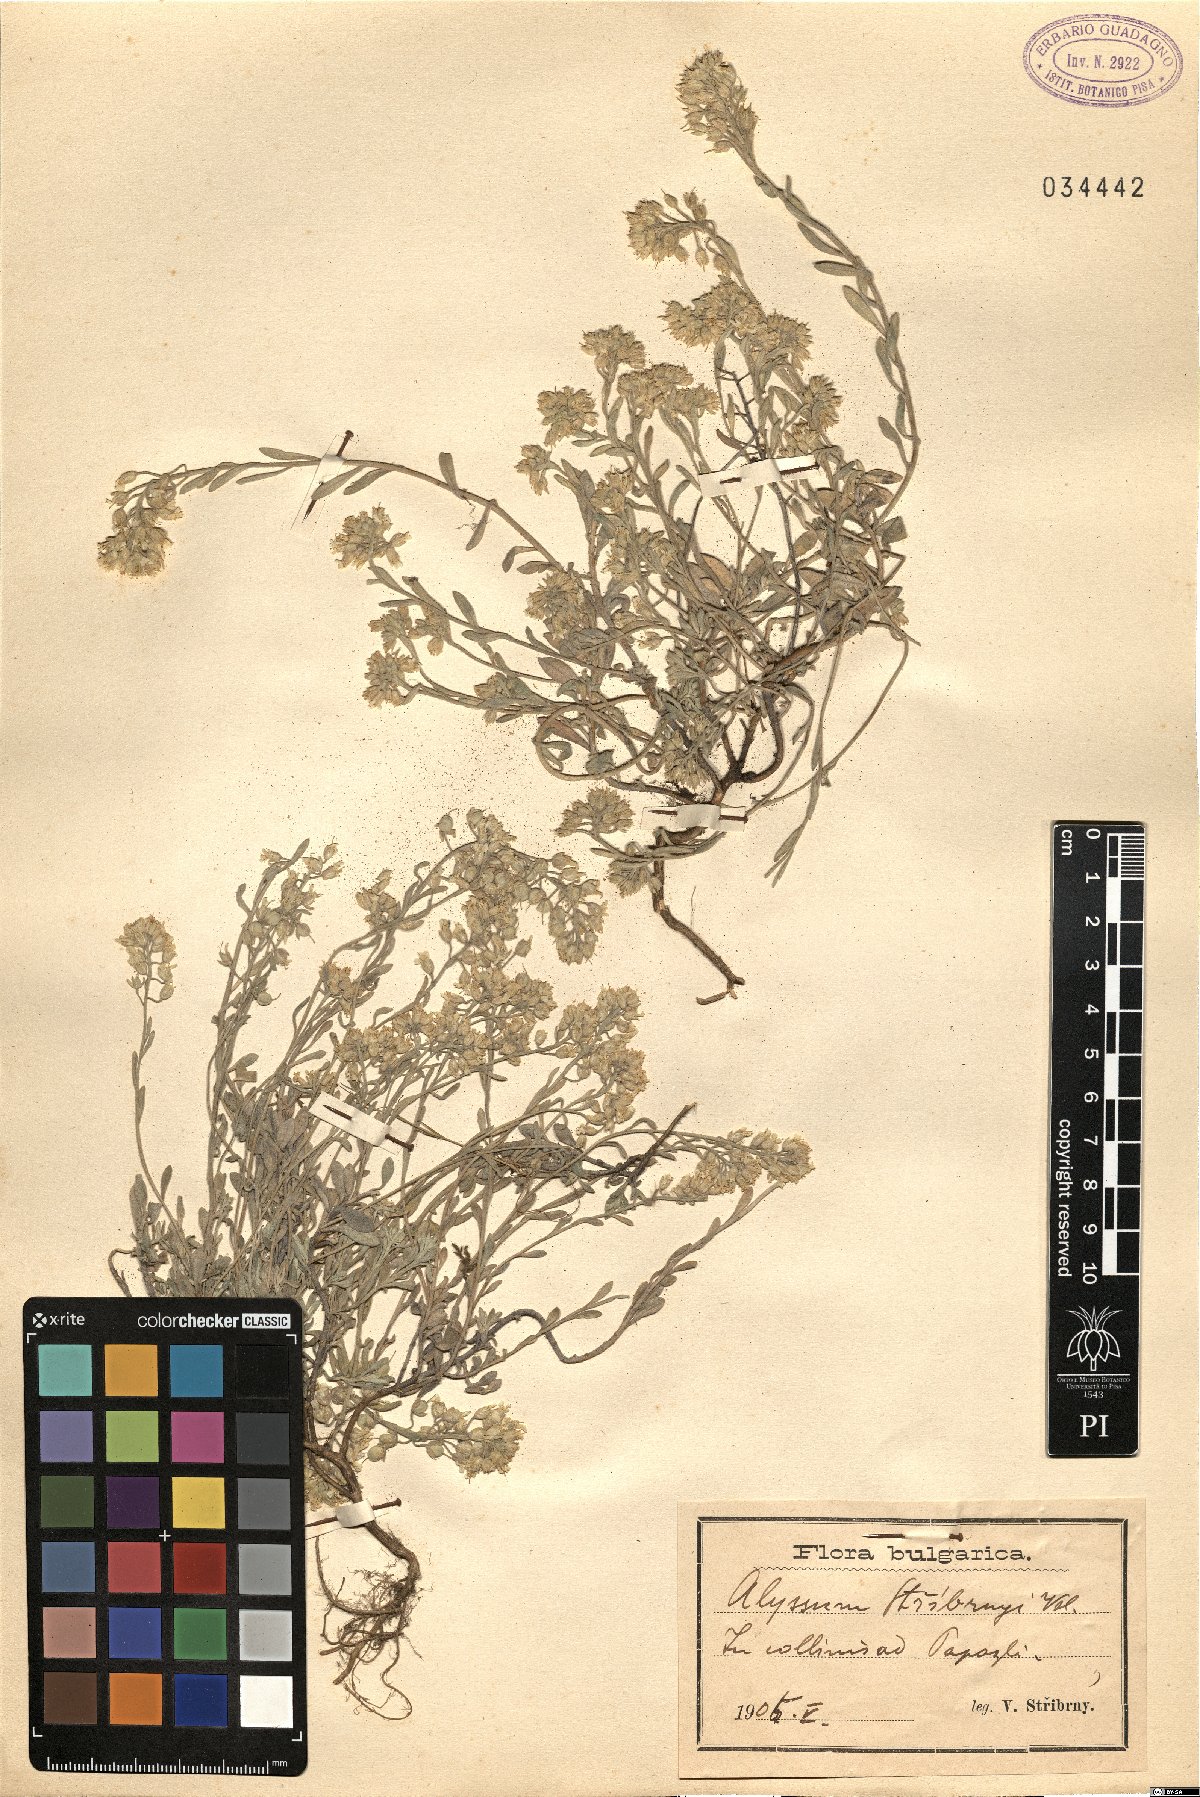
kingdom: Plantae
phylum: Tracheophyta
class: Magnoliopsida
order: Brassicales
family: Brassicaceae
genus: Alyssum
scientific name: Alyssum montanum
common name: Mountain alison
